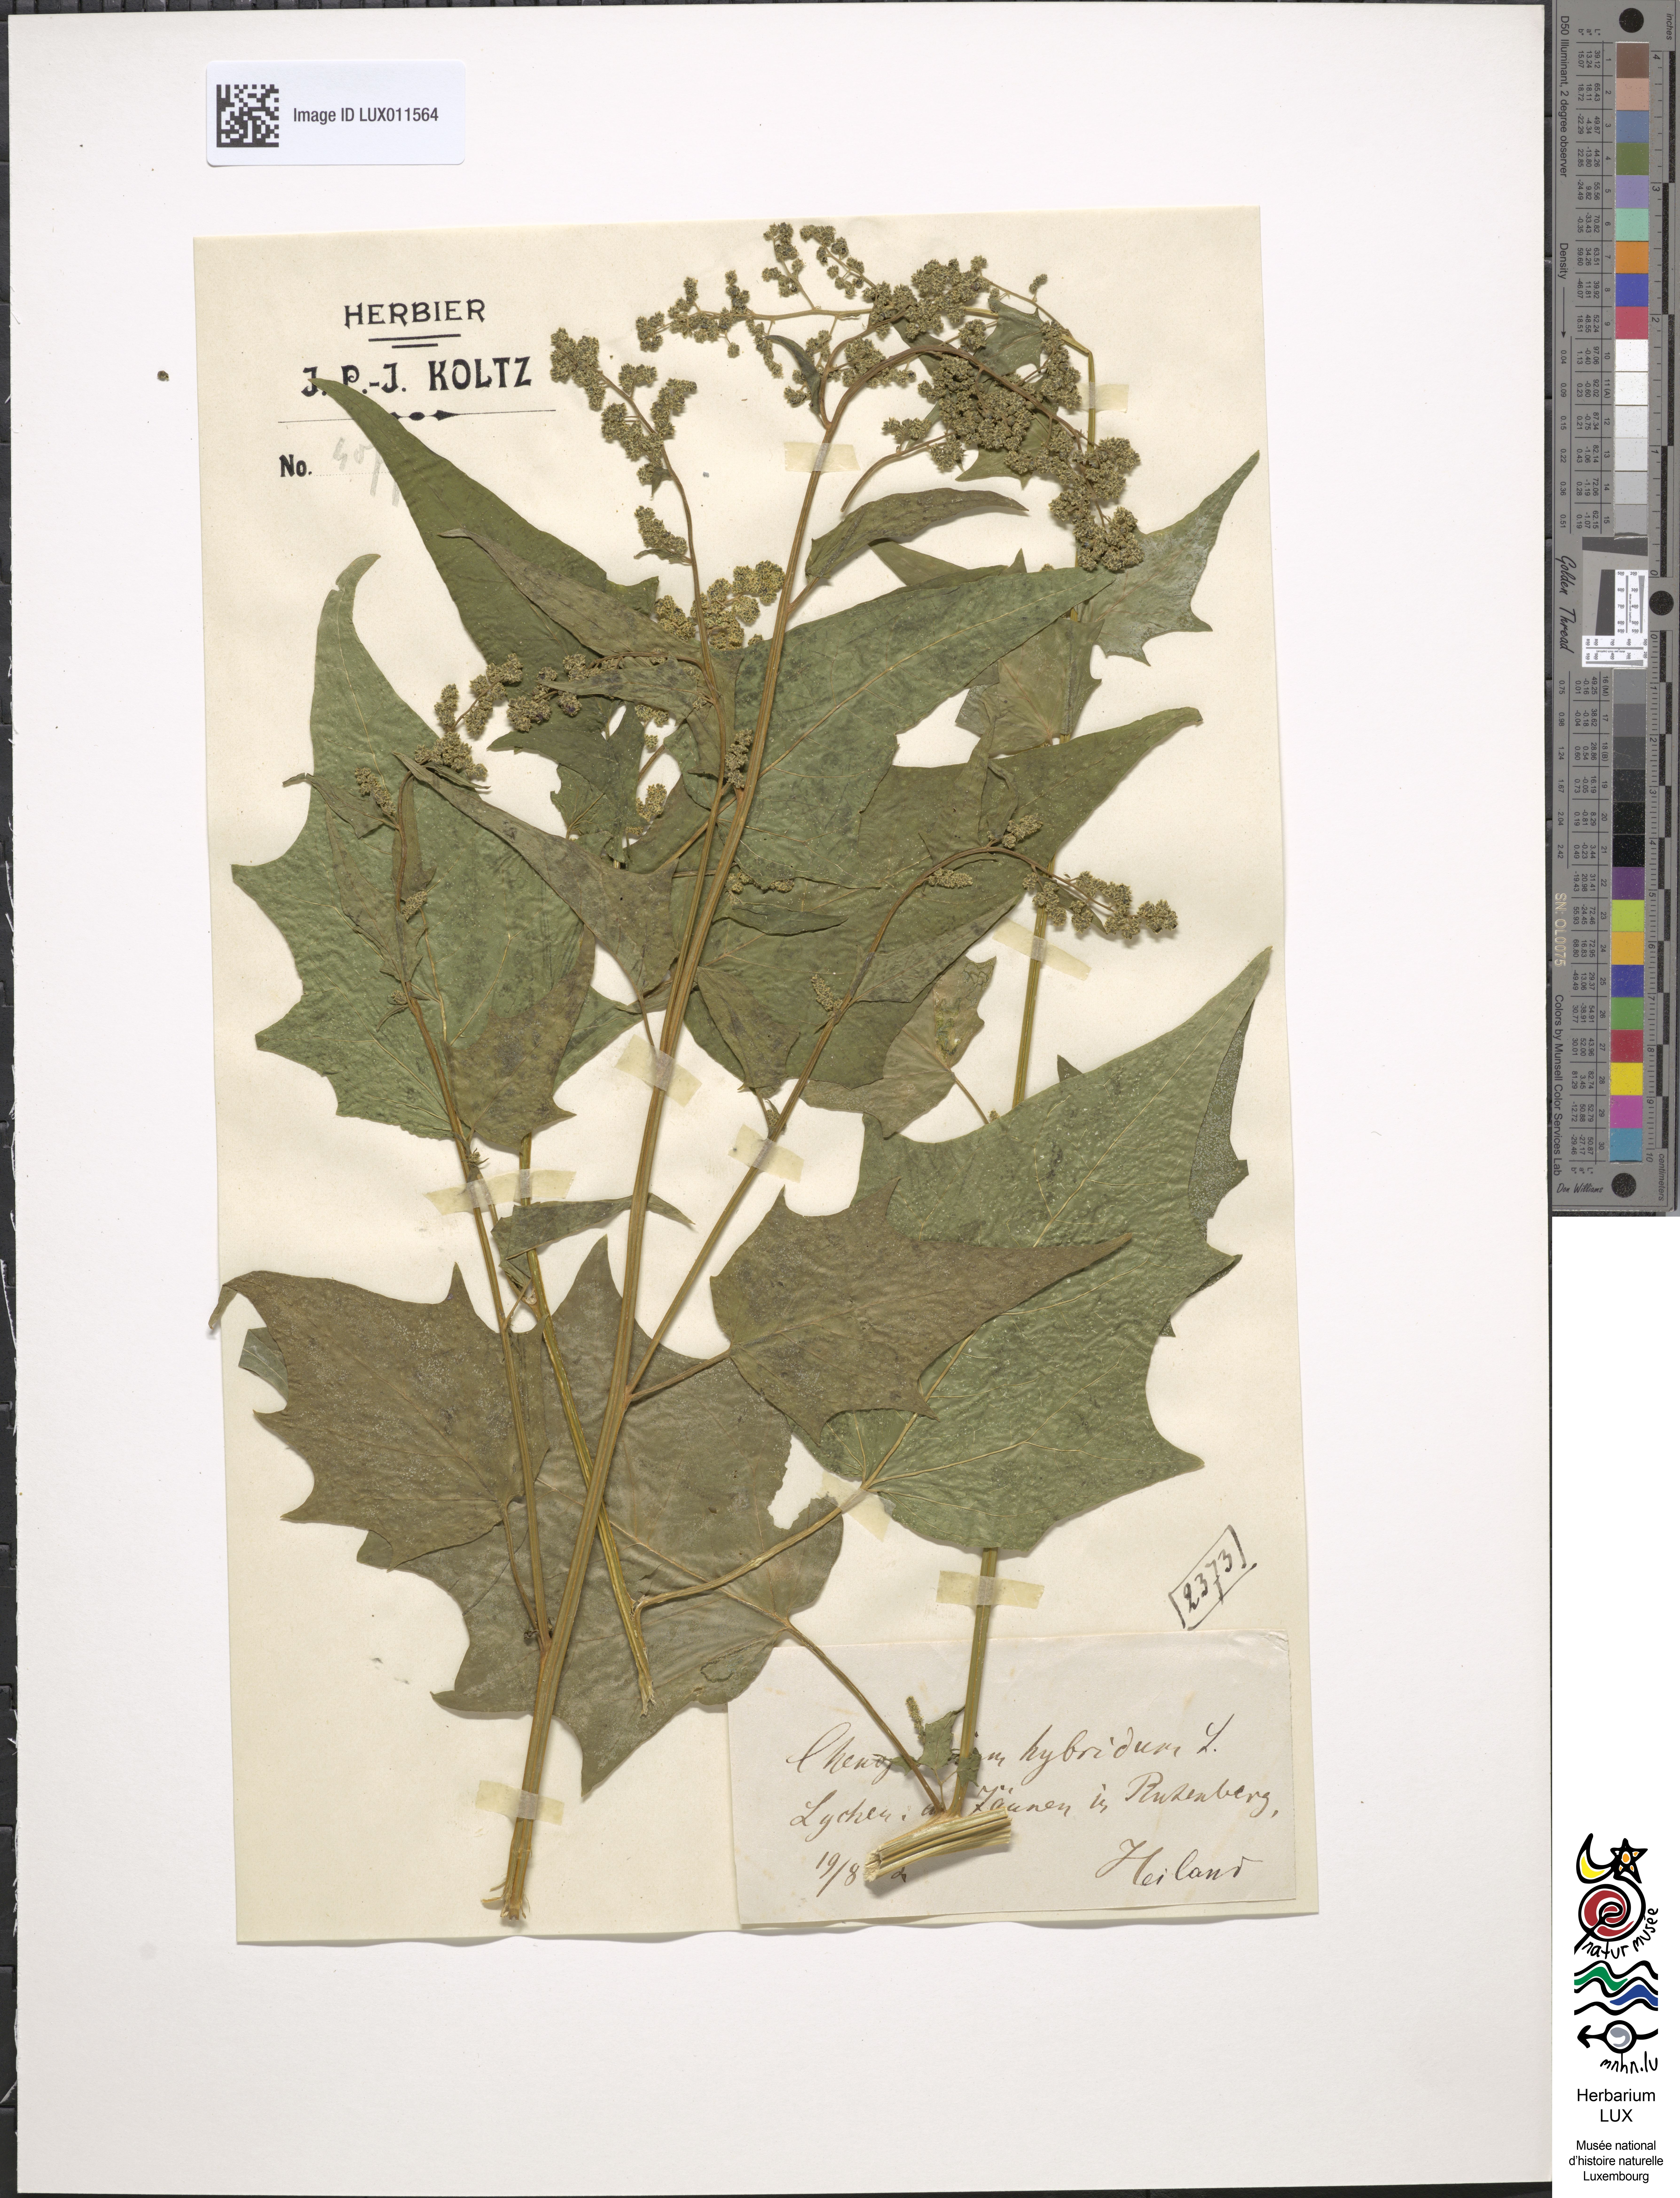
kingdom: Plantae
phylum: Tracheophyta
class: Magnoliopsida
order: Caryophyllales
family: Amaranthaceae
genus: Chenopodiastrum
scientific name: Chenopodiastrum hybridum
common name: Mapleleaf goosefoot
